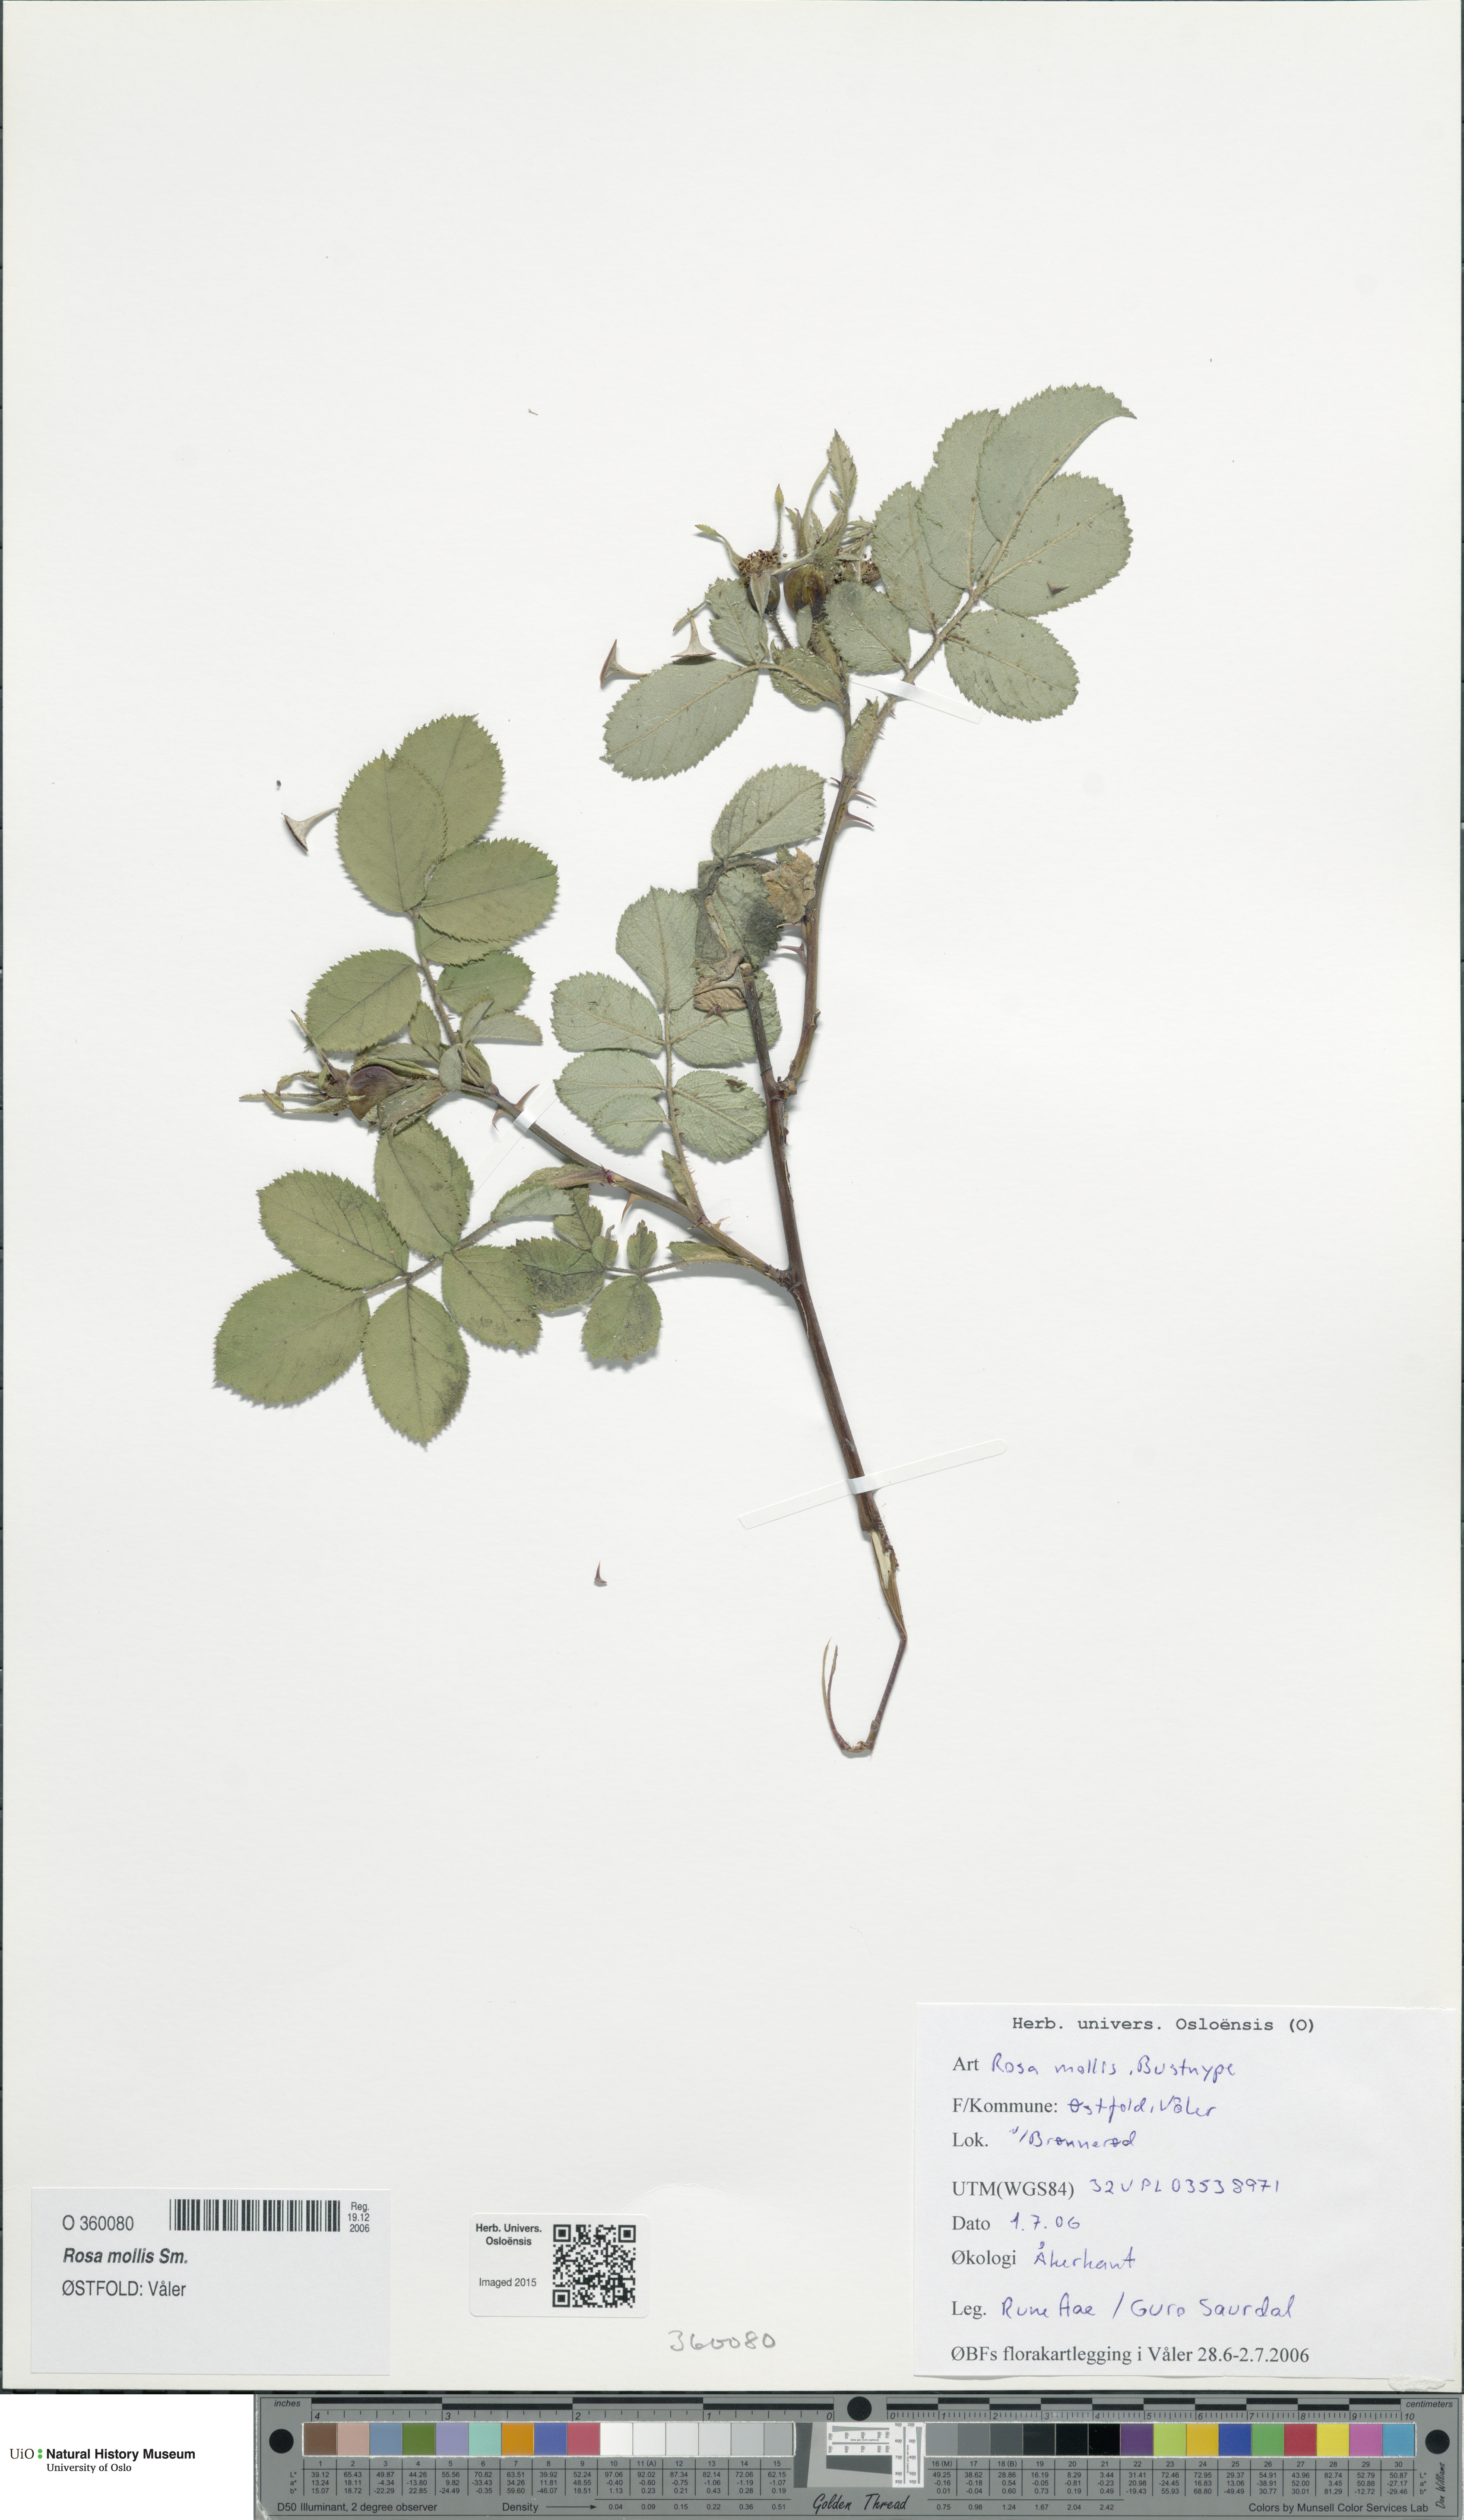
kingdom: Plantae
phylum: Tracheophyta
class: Magnoliopsida
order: Rosales
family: Rosaceae
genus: Rosa
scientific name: Rosa mollis
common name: Rose
